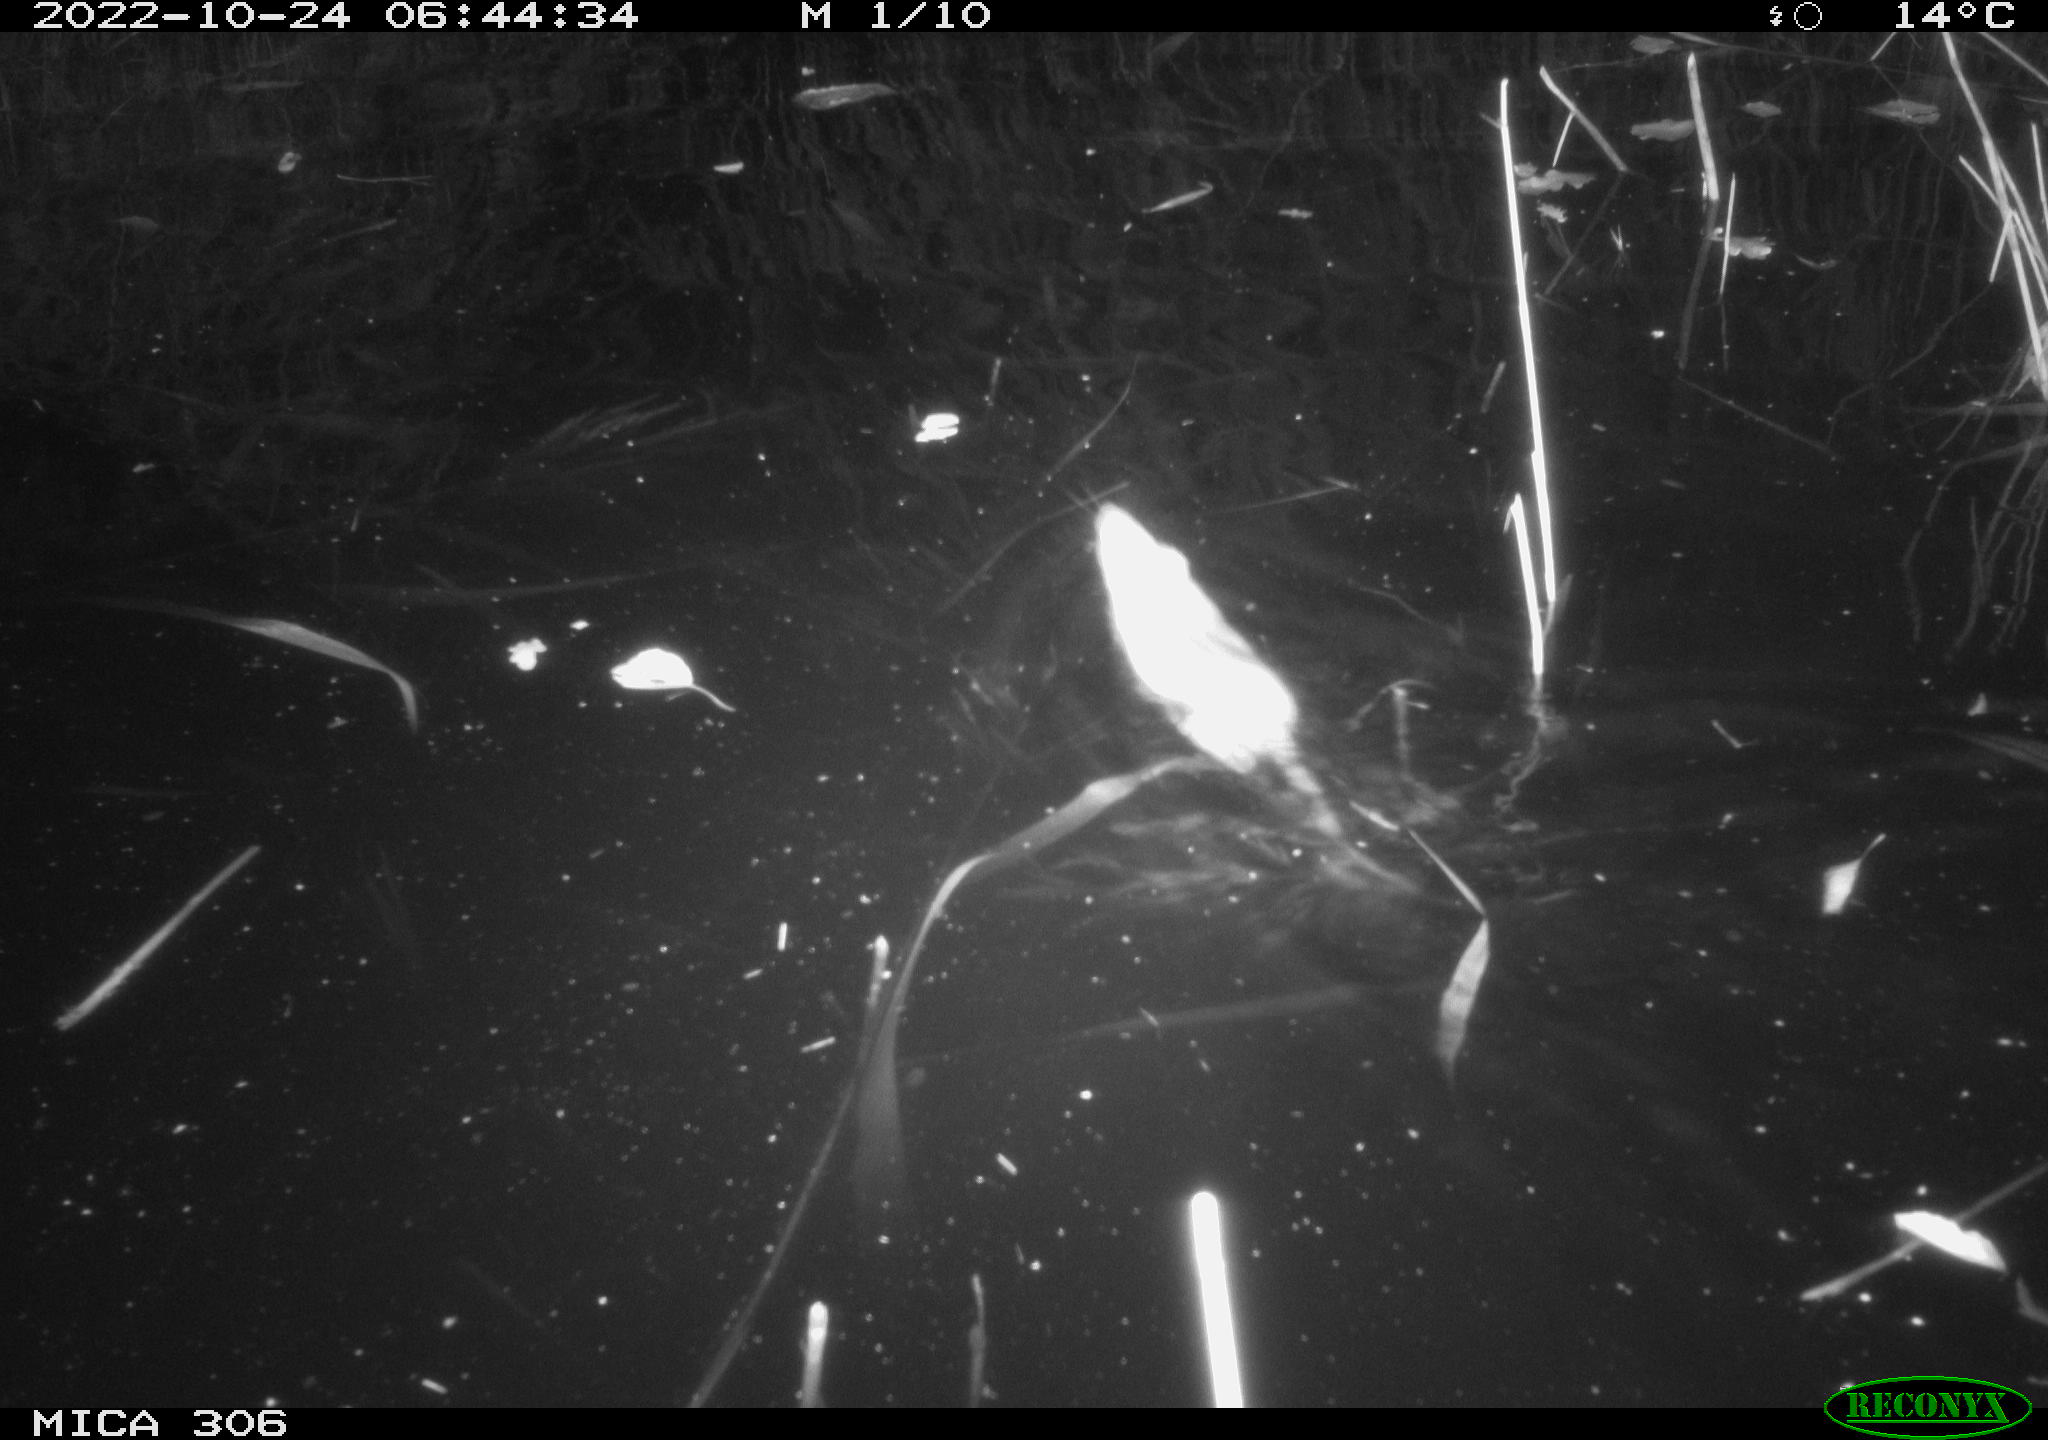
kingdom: Animalia
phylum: Chordata
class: Mammalia
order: Rodentia
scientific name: Rodentia
